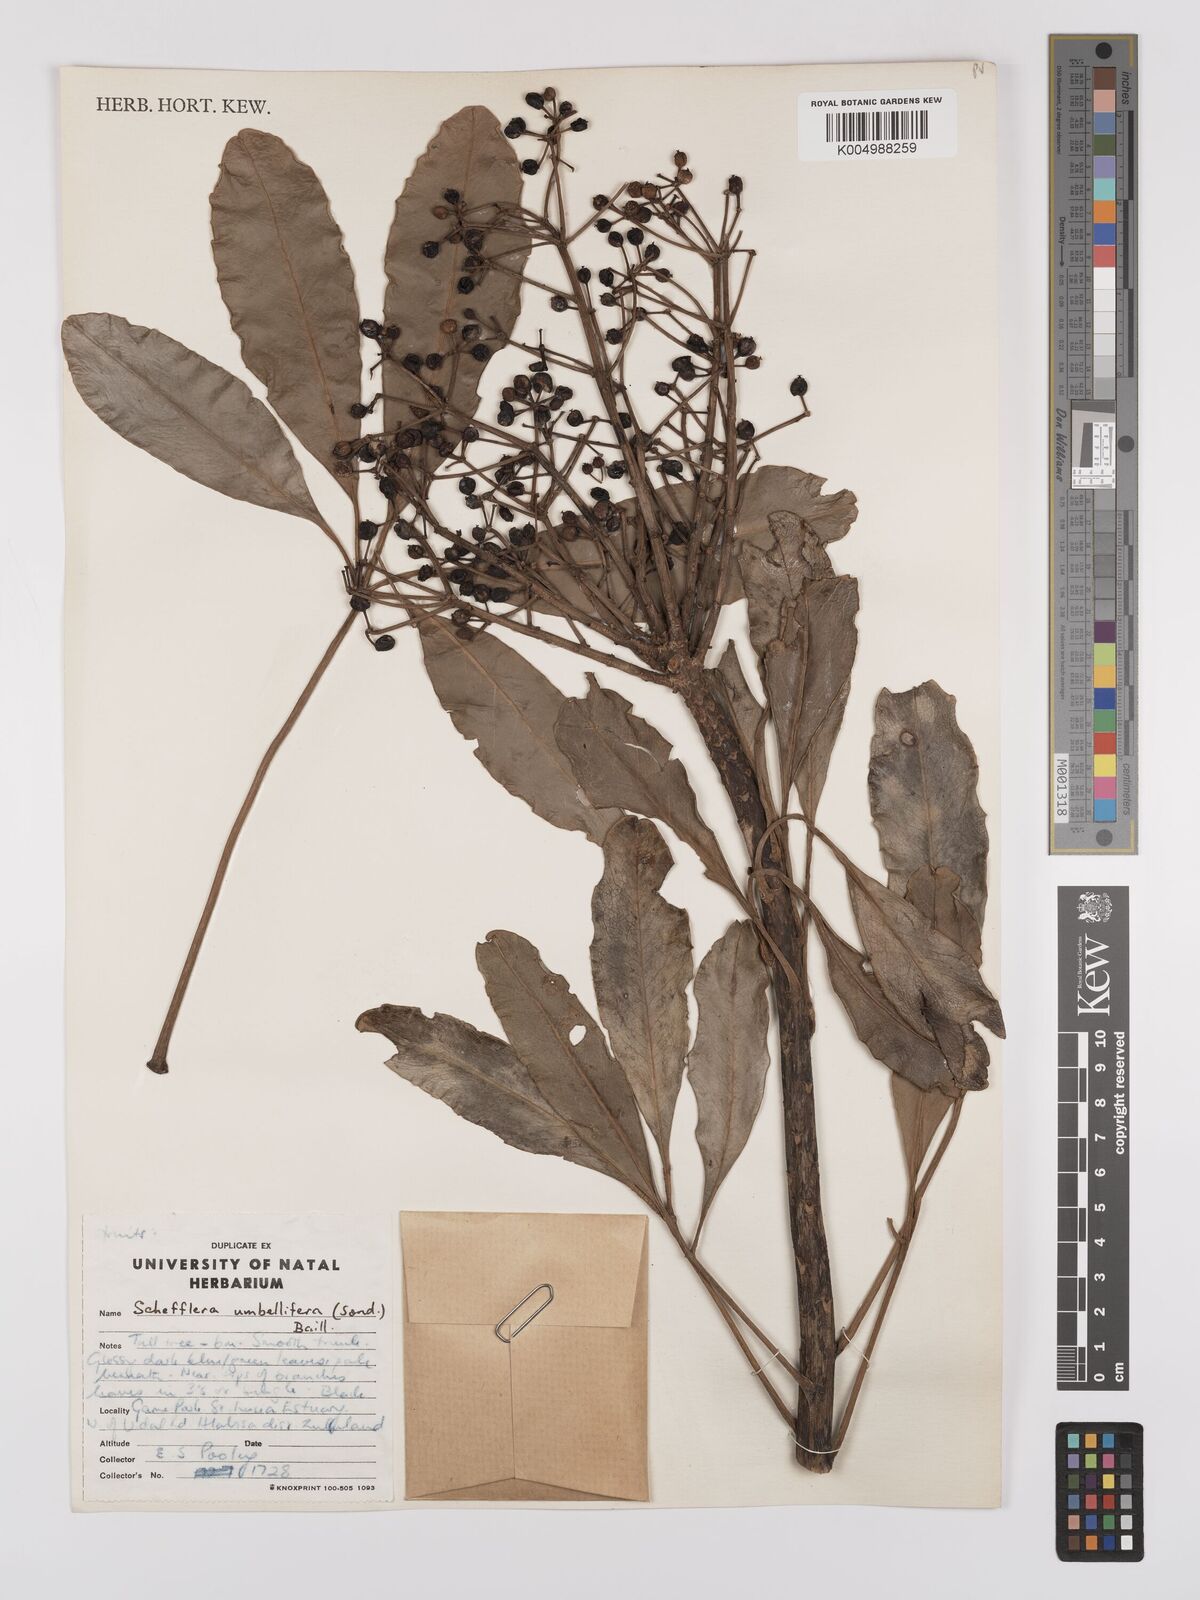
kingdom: Plantae
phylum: Tracheophyta
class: Magnoliopsida
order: Apiales
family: Araliaceae
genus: Neocussonia
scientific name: Neocussonia umbellifera
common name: False cabbage tree
